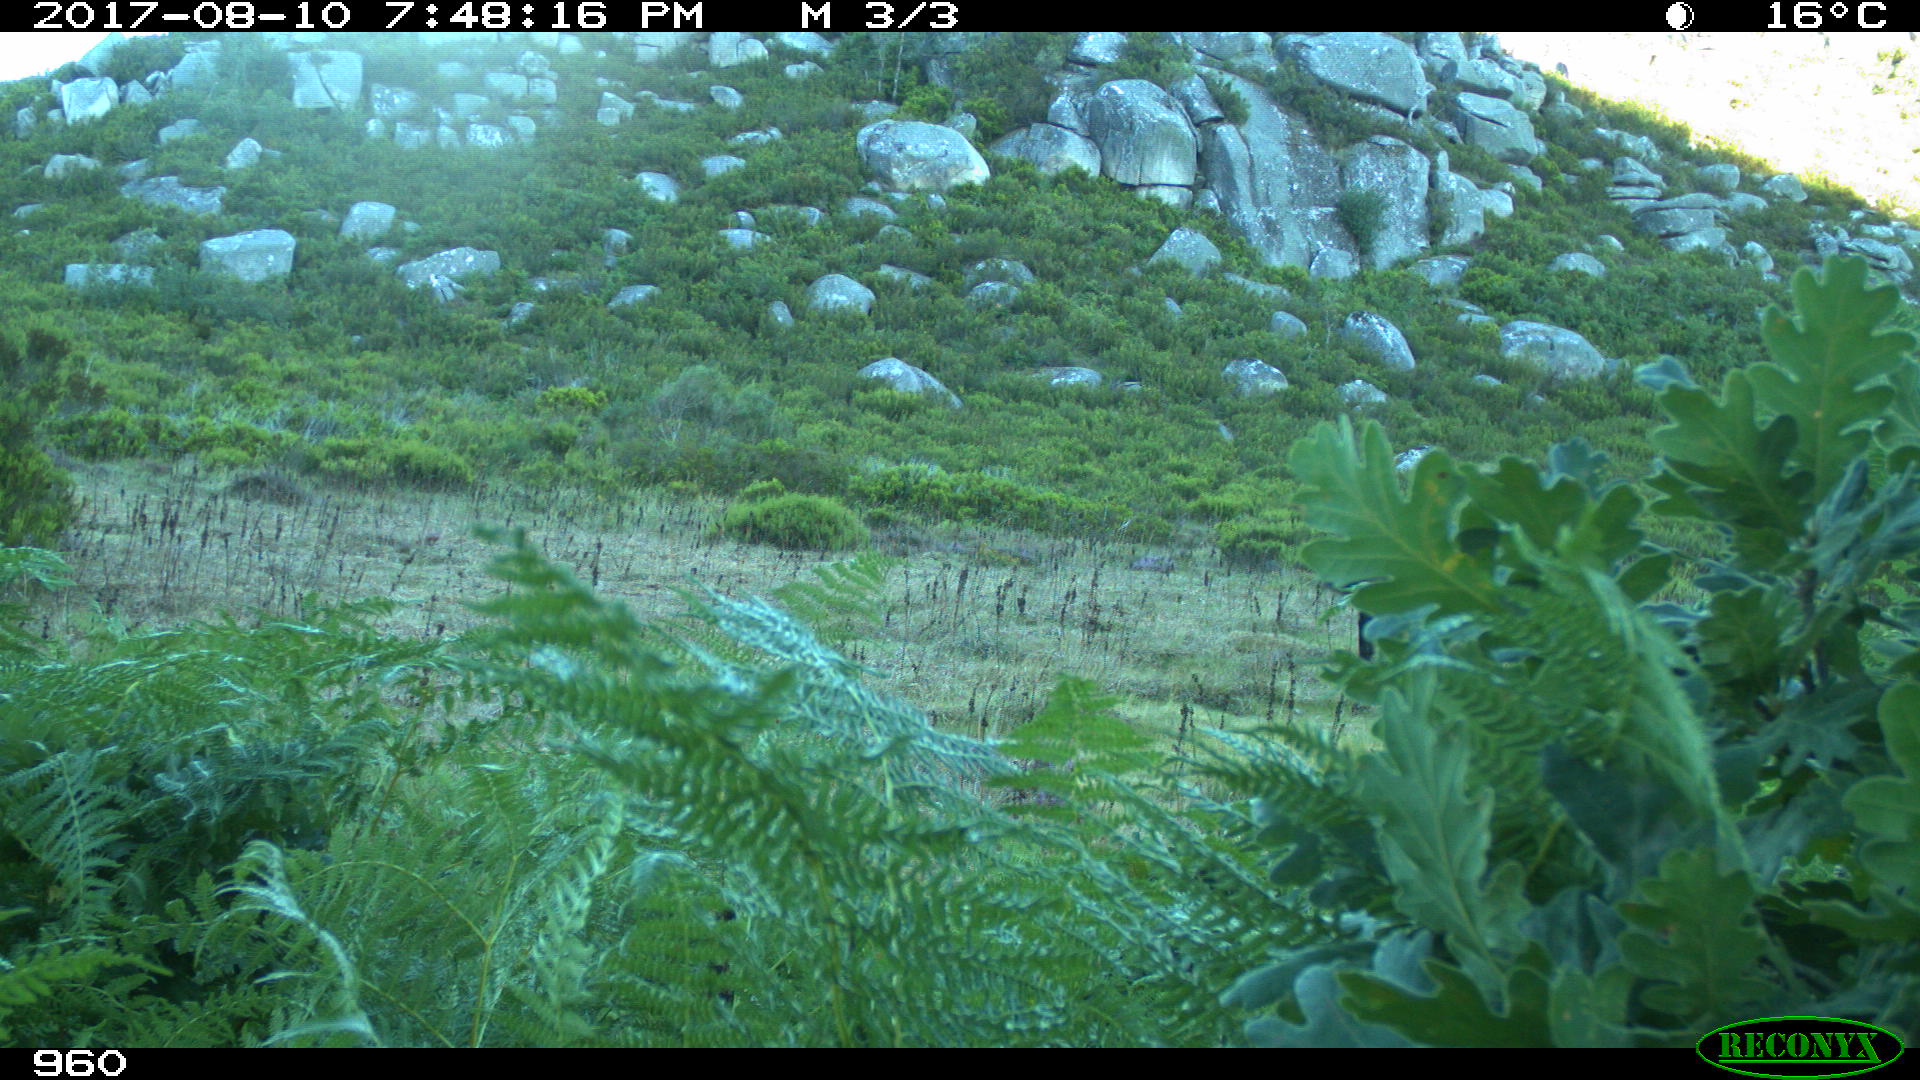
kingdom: Animalia
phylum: Chordata
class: Mammalia
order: Perissodactyla
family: Equidae
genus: Equus
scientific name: Equus caballus
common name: Horse
